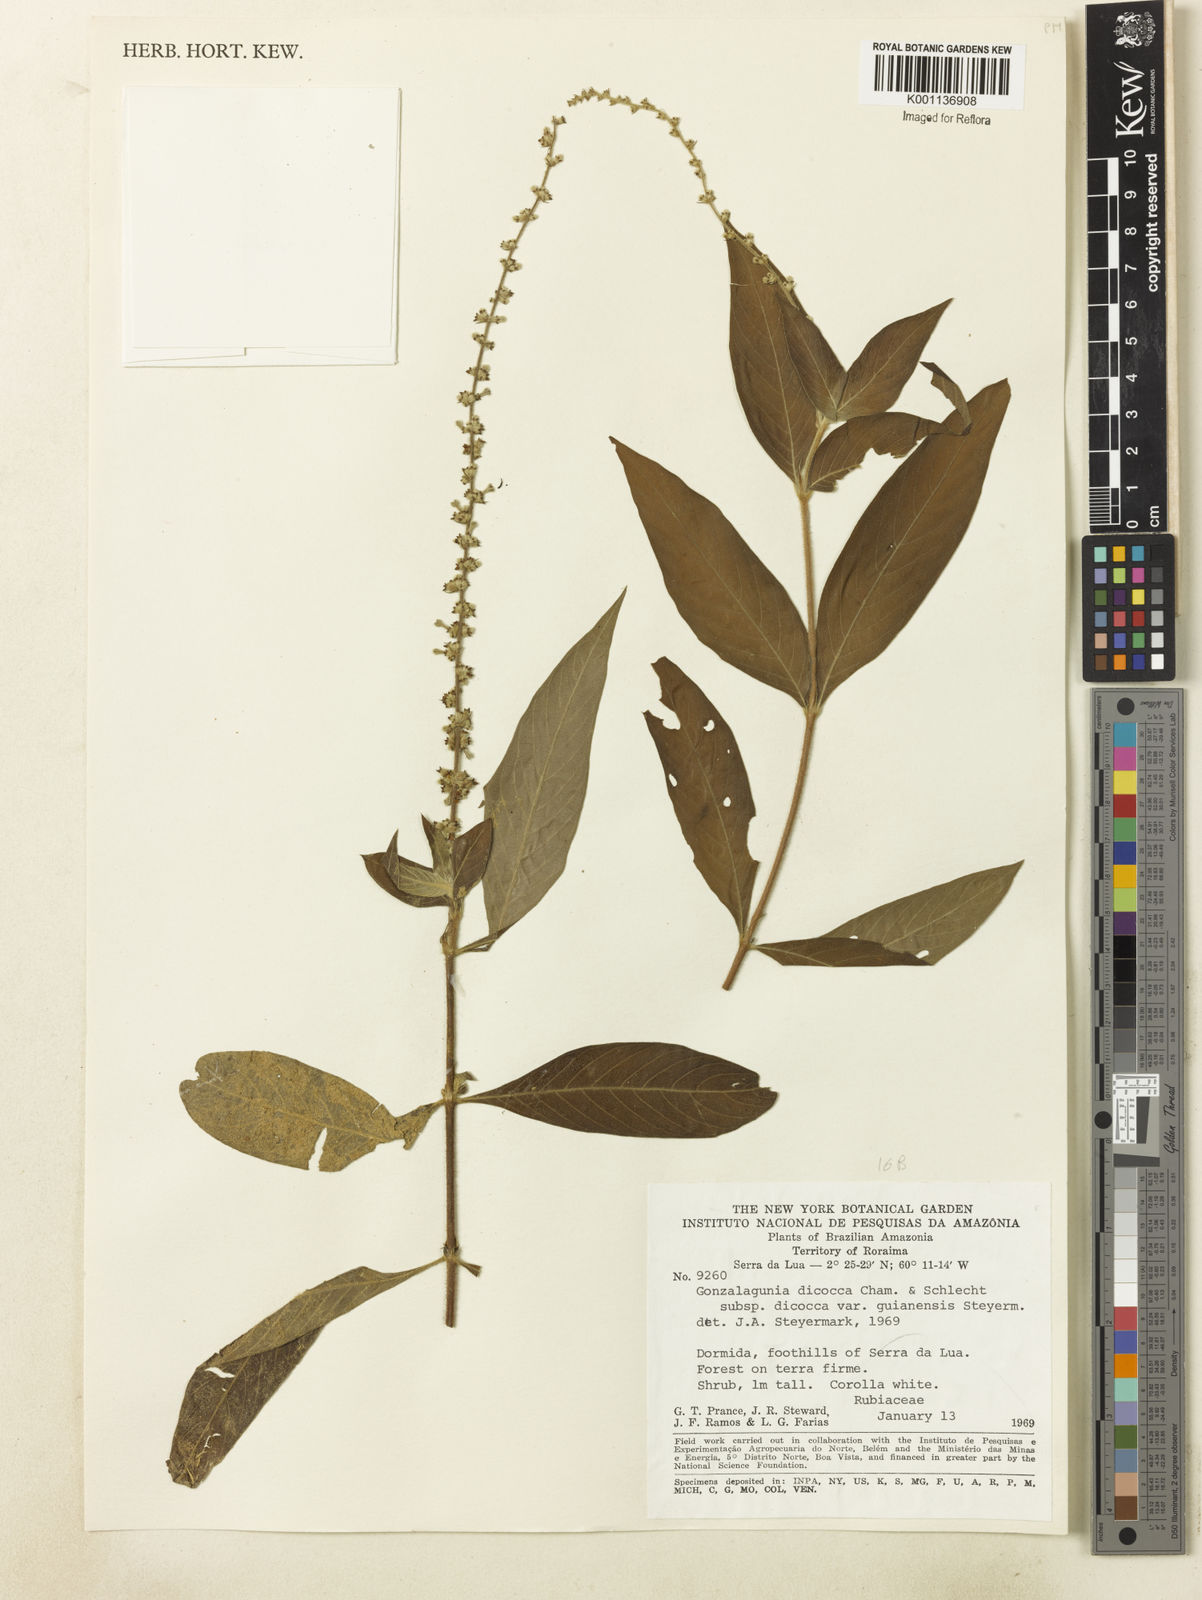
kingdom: Plantae
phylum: Tracheophyta
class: Magnoliopsida
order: Gentianales
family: Rubiaceae
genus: Gonzalagunia
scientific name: Gonzalagunia dicocca
